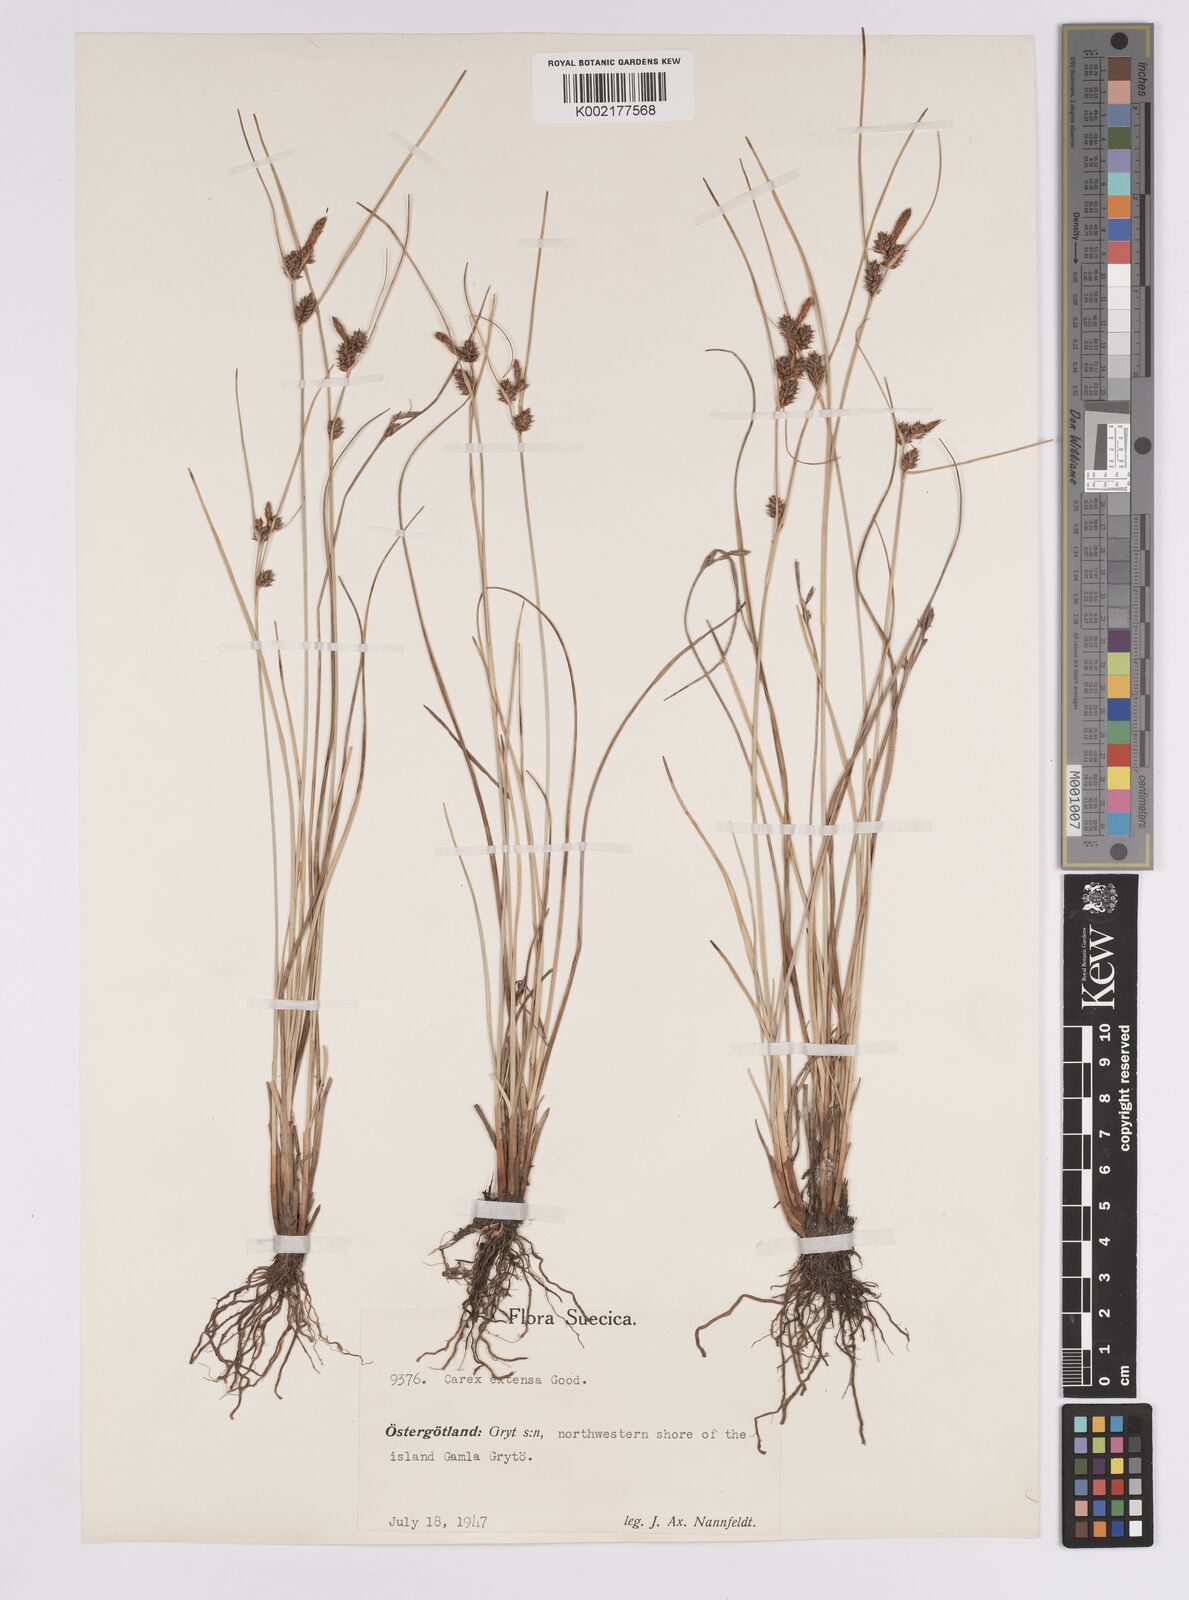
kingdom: Plantae
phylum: Tracheophyta
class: Liliopsida
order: Poales
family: Cyperaceae
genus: Carex
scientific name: Carex extensa
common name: Long-bracted sedge
